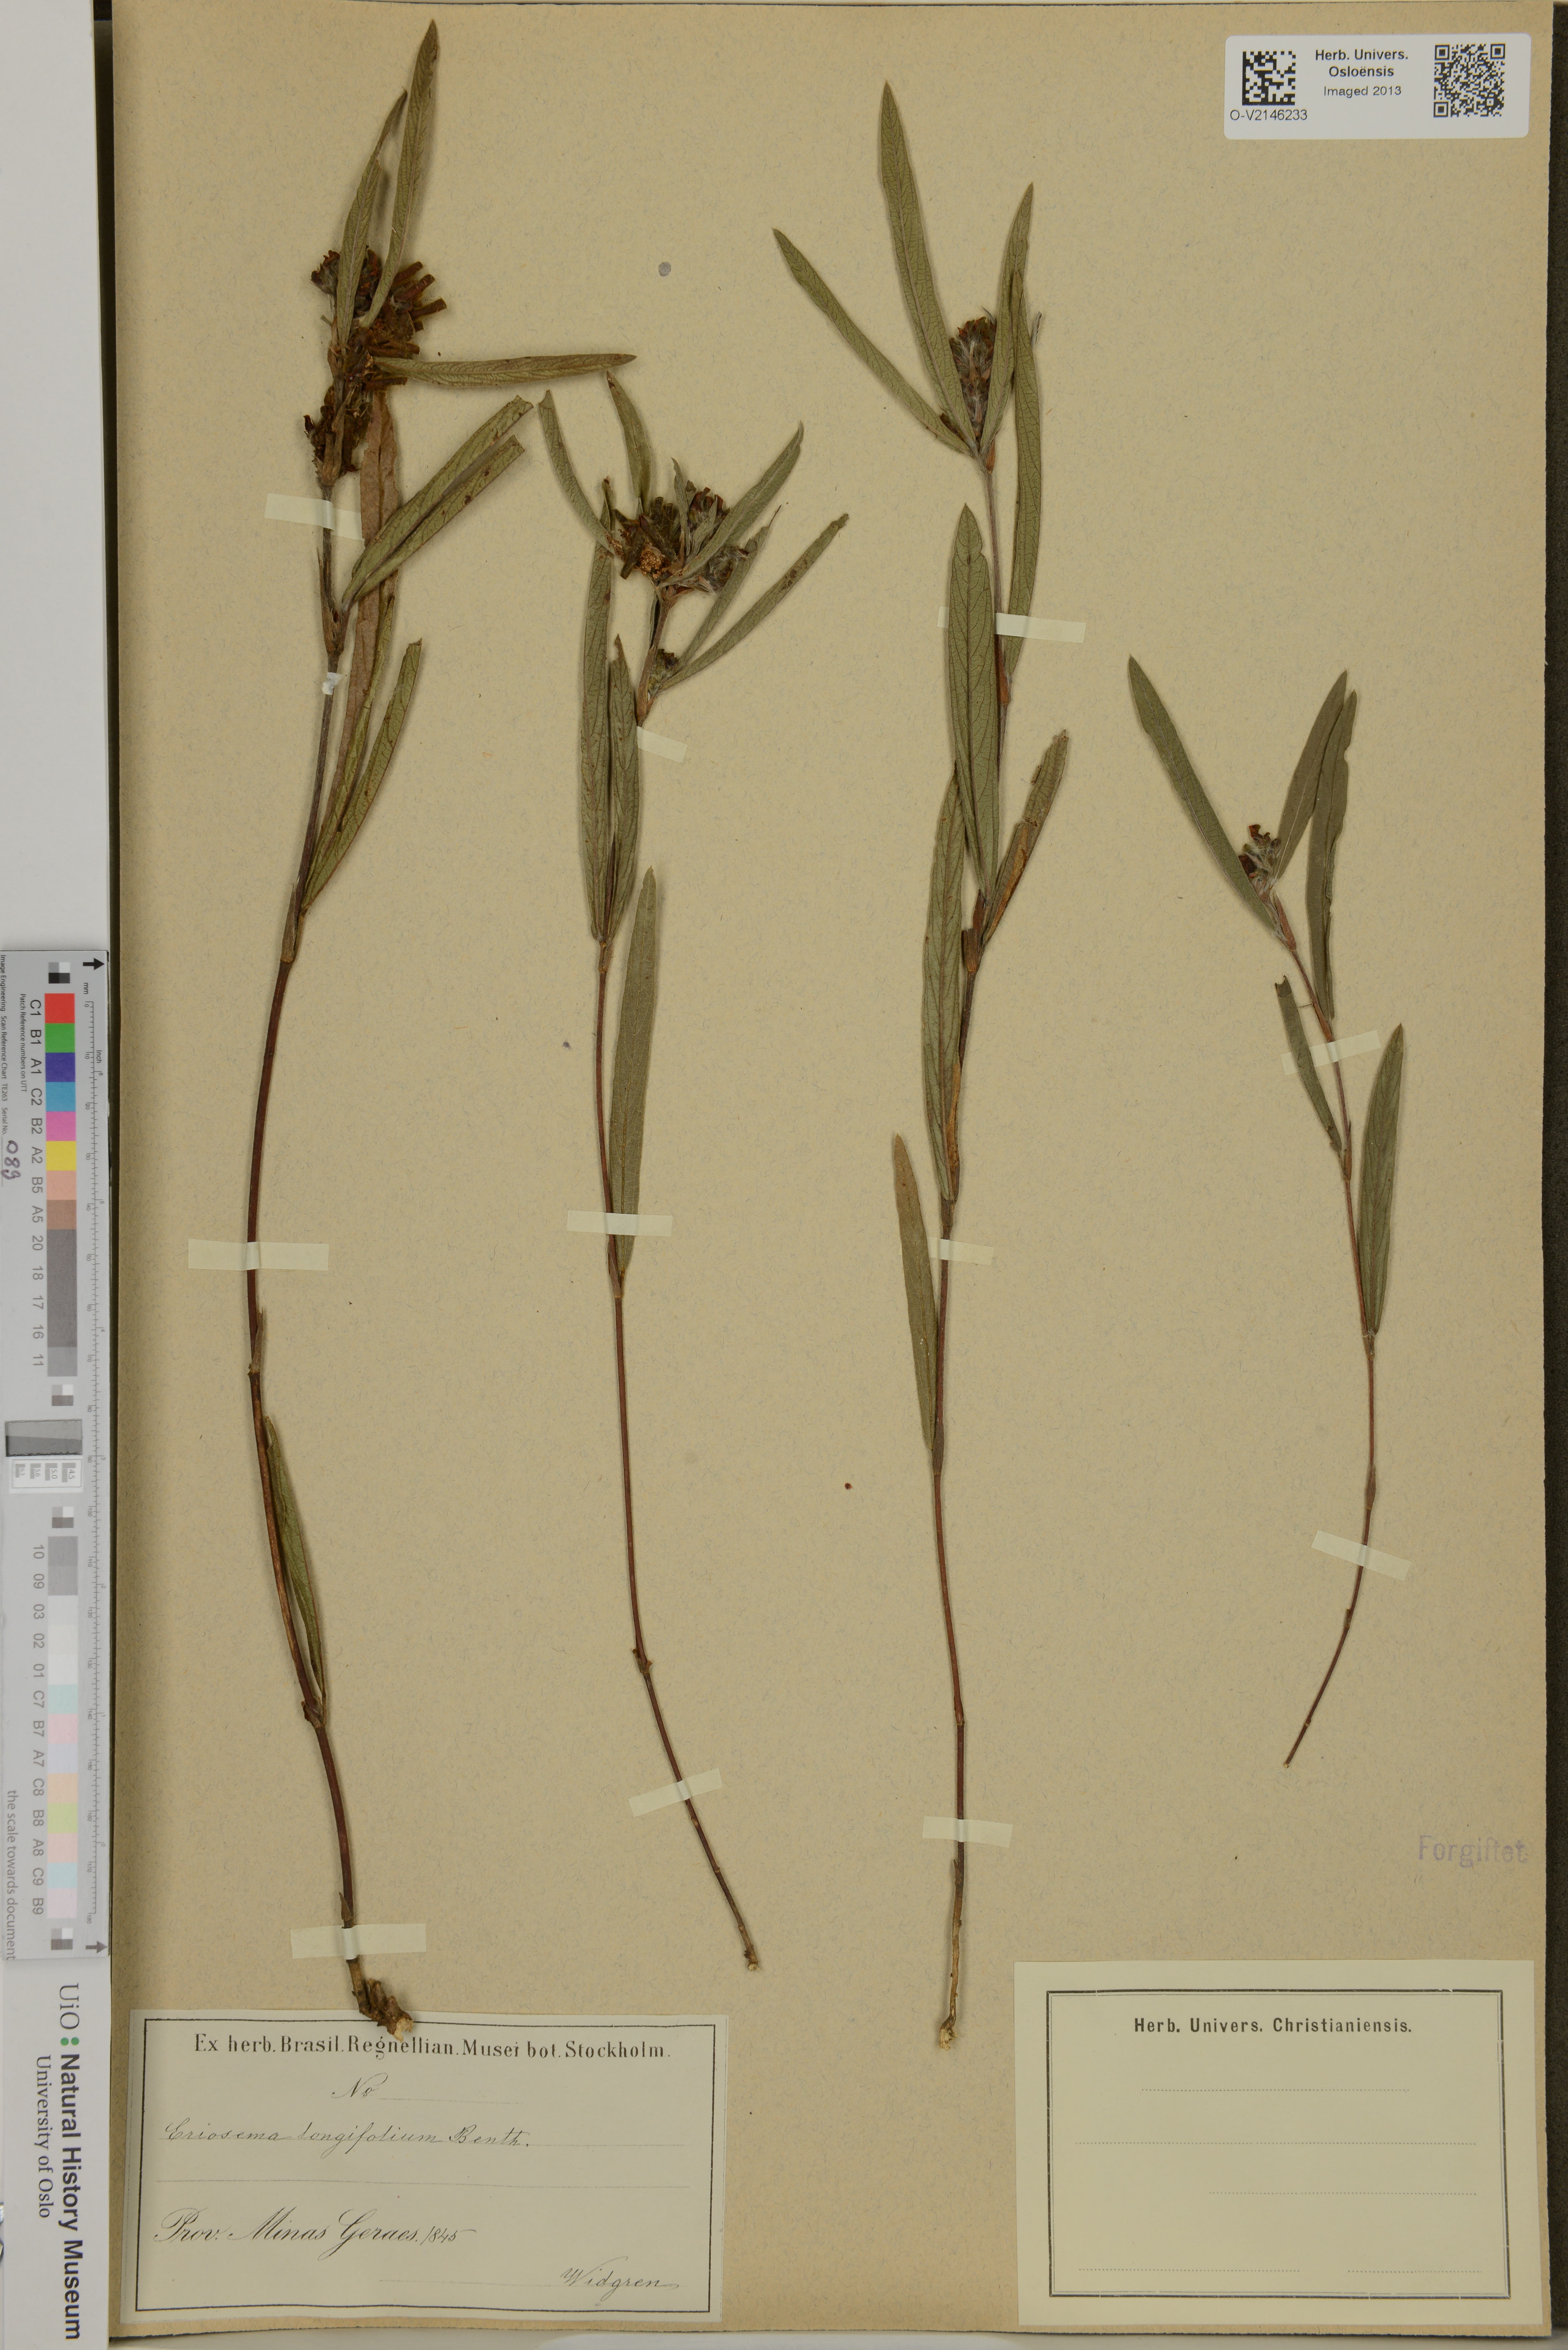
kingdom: Plantae
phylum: Tracheophyta
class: Magnoliopsida
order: Fabales
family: Fabaceae
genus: Eriosema
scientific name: Eriosema longifolium
